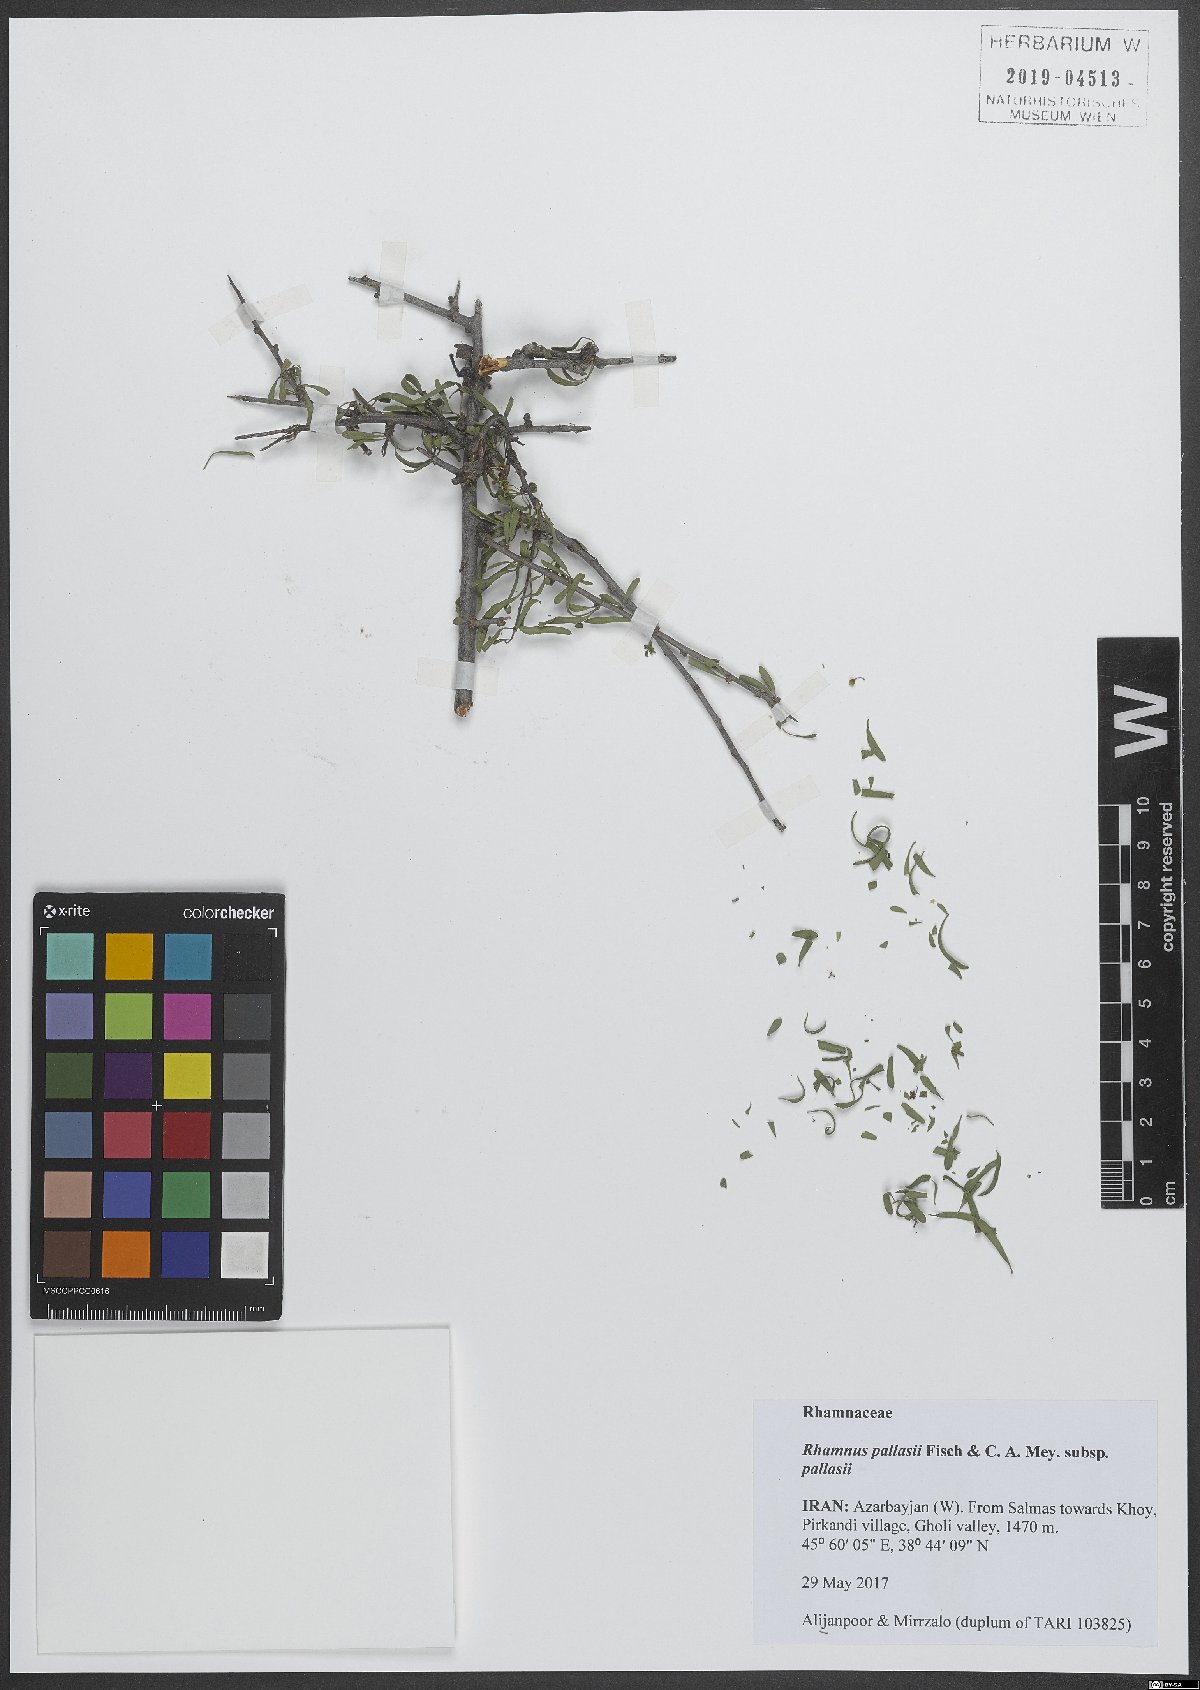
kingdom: Plantae
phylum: Tracheophyta
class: Magnoliopsida
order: Rosales
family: Rhamnaceae
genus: Rhamnus
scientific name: Rhamnus erythroxyloides
